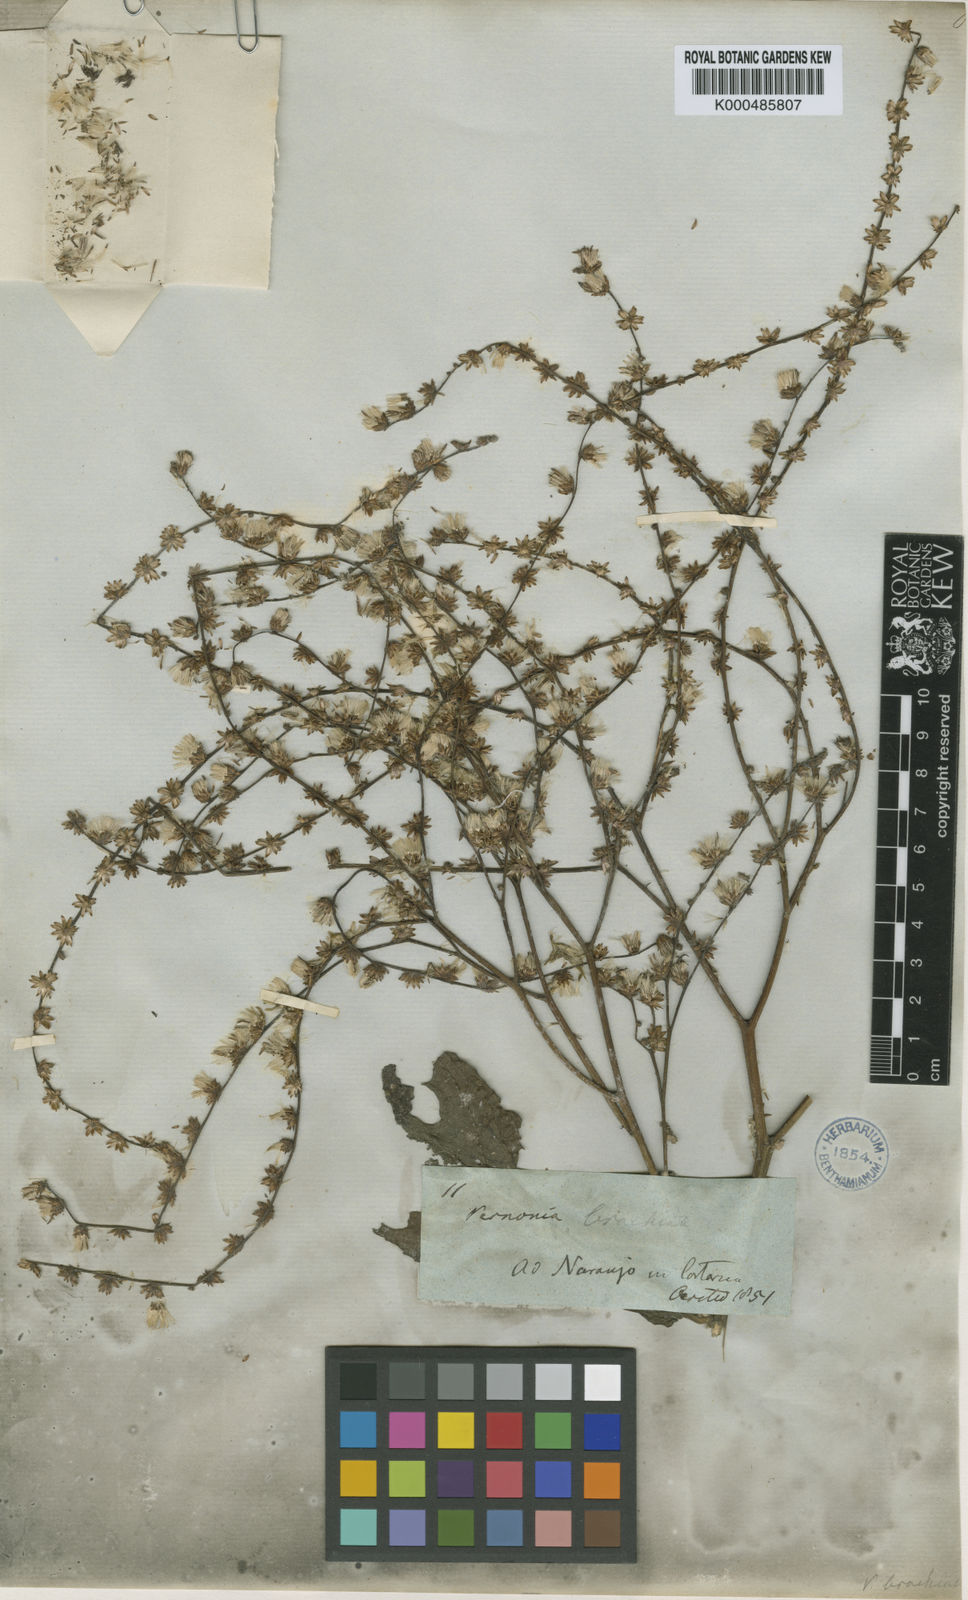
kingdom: Plantae
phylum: Tracheophyta
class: Magnoliopsida
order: Asterales
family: Asteraceae
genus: Eirmocephala
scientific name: Eirmocephala brachiata
